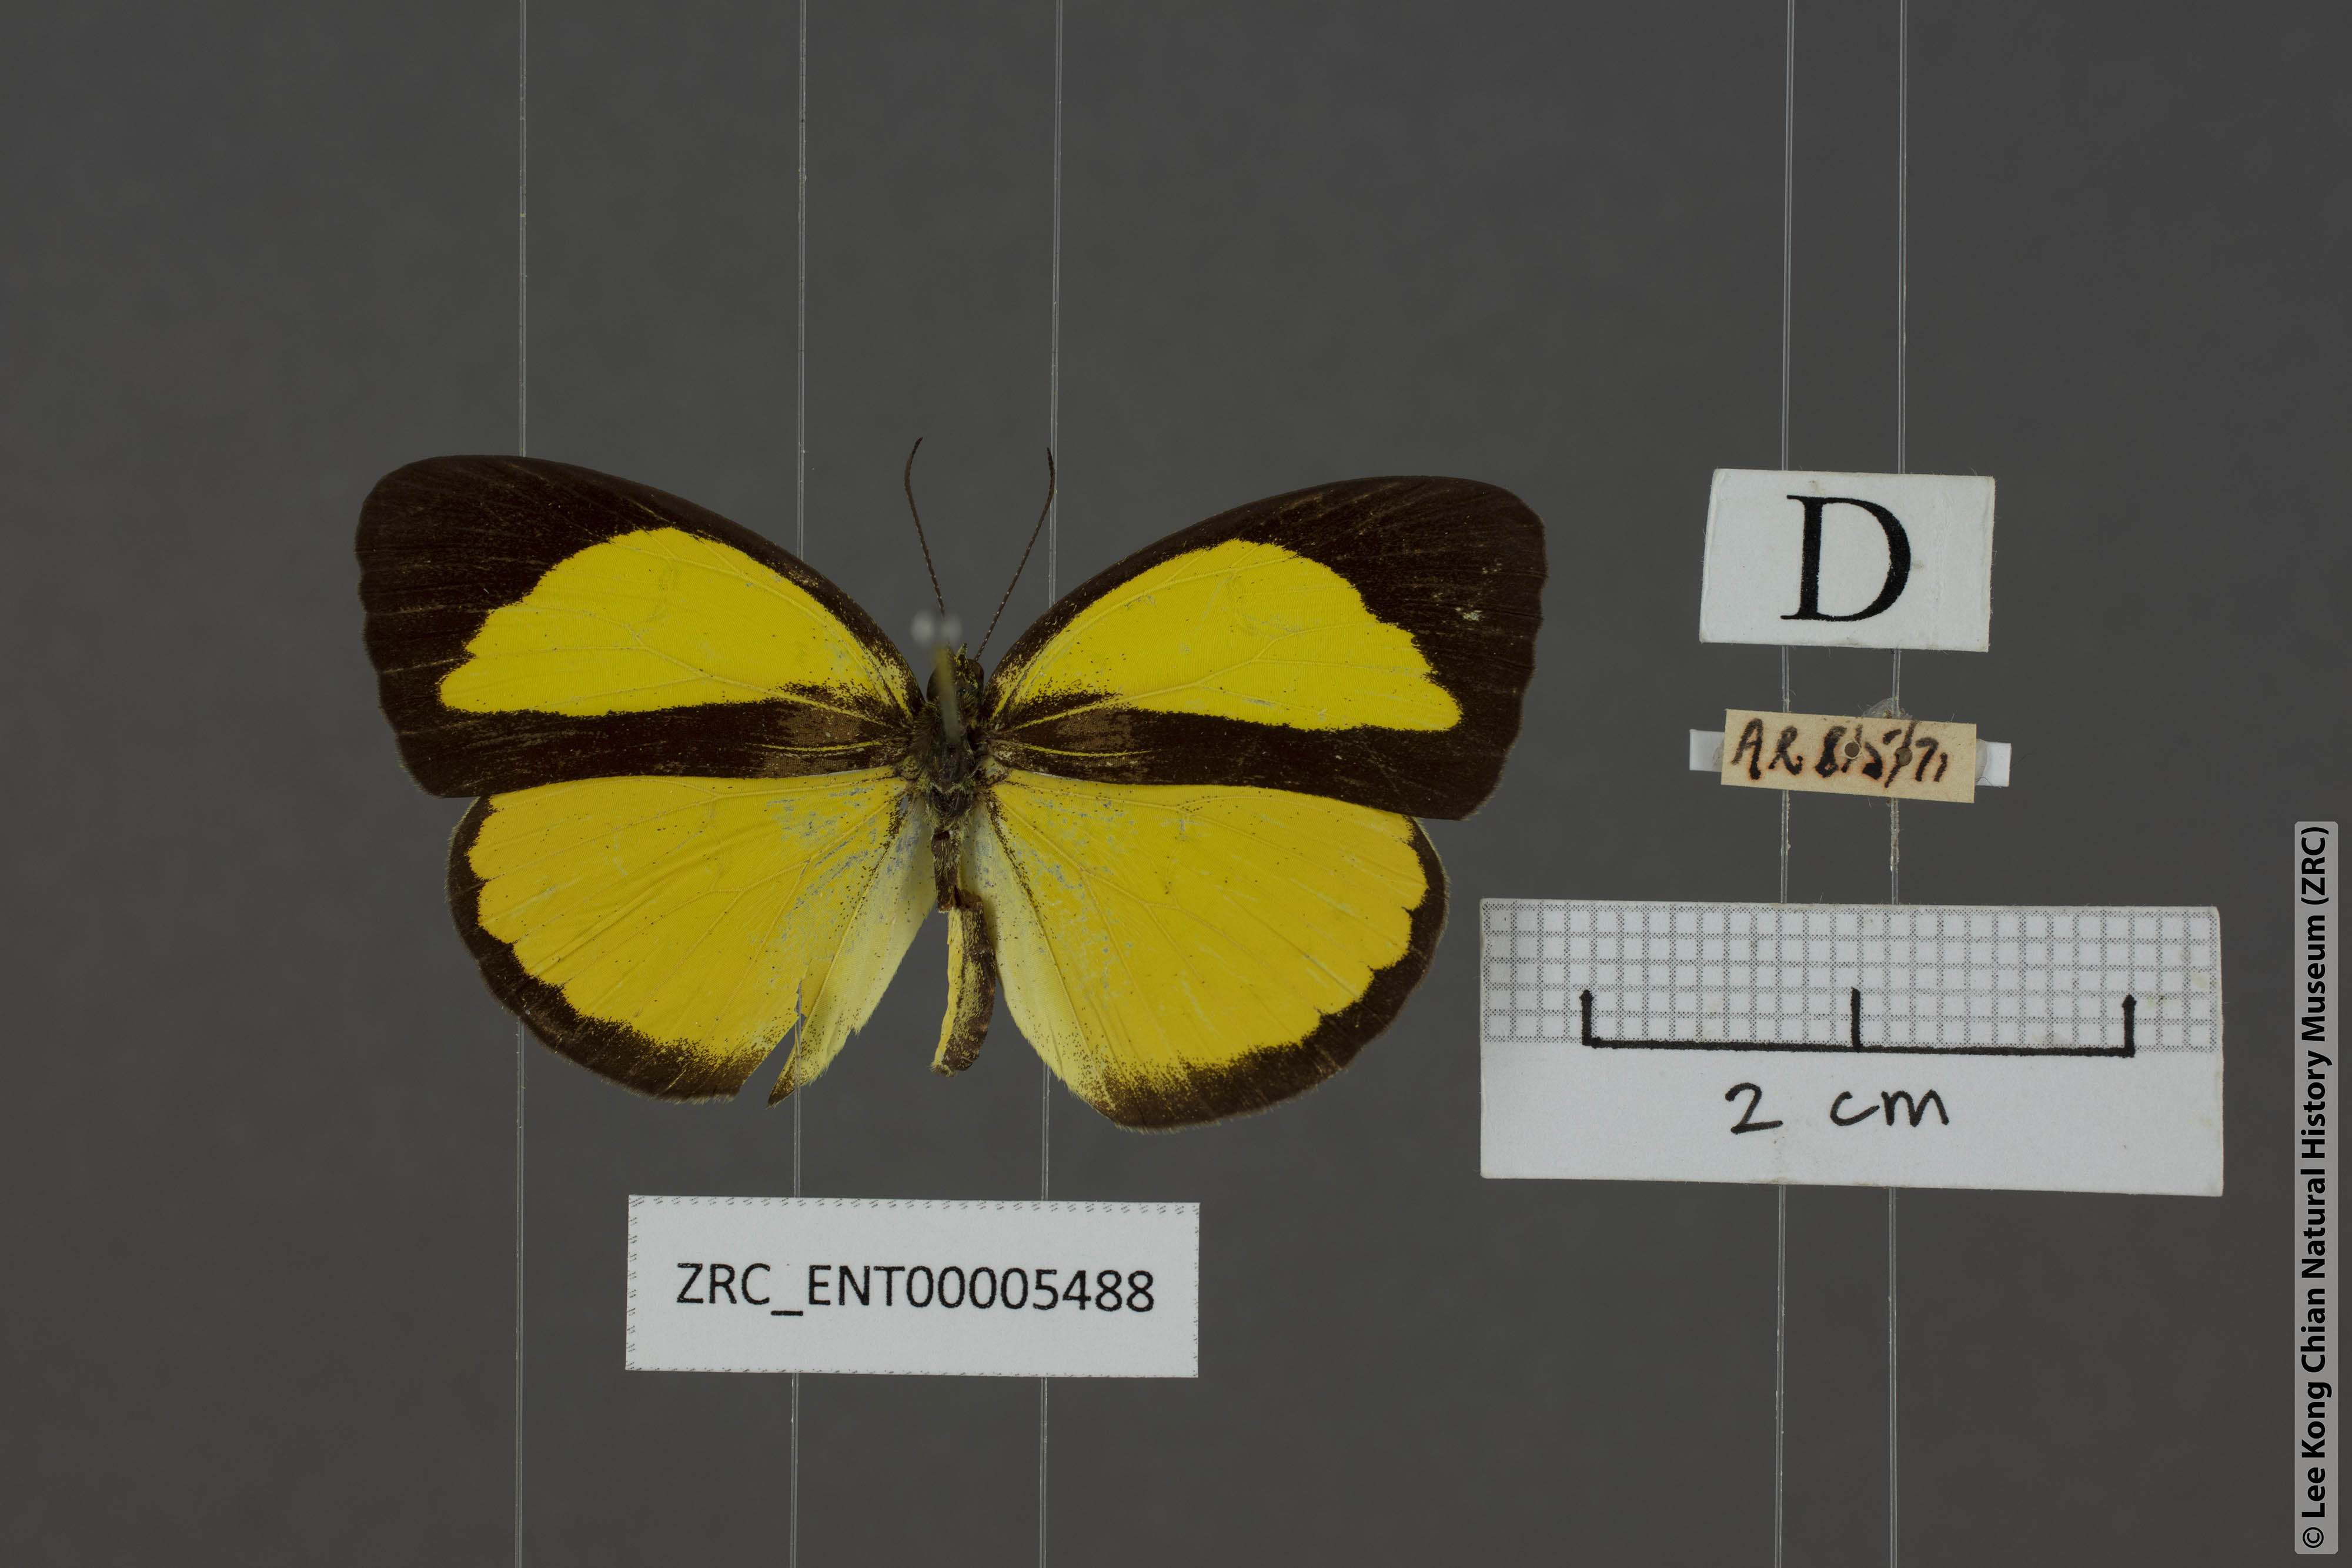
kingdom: Animalia
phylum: Arthropoda
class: Insecta
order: Lepidoptera
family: Pieridae
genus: Eurema
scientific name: Eurema nicevillei
